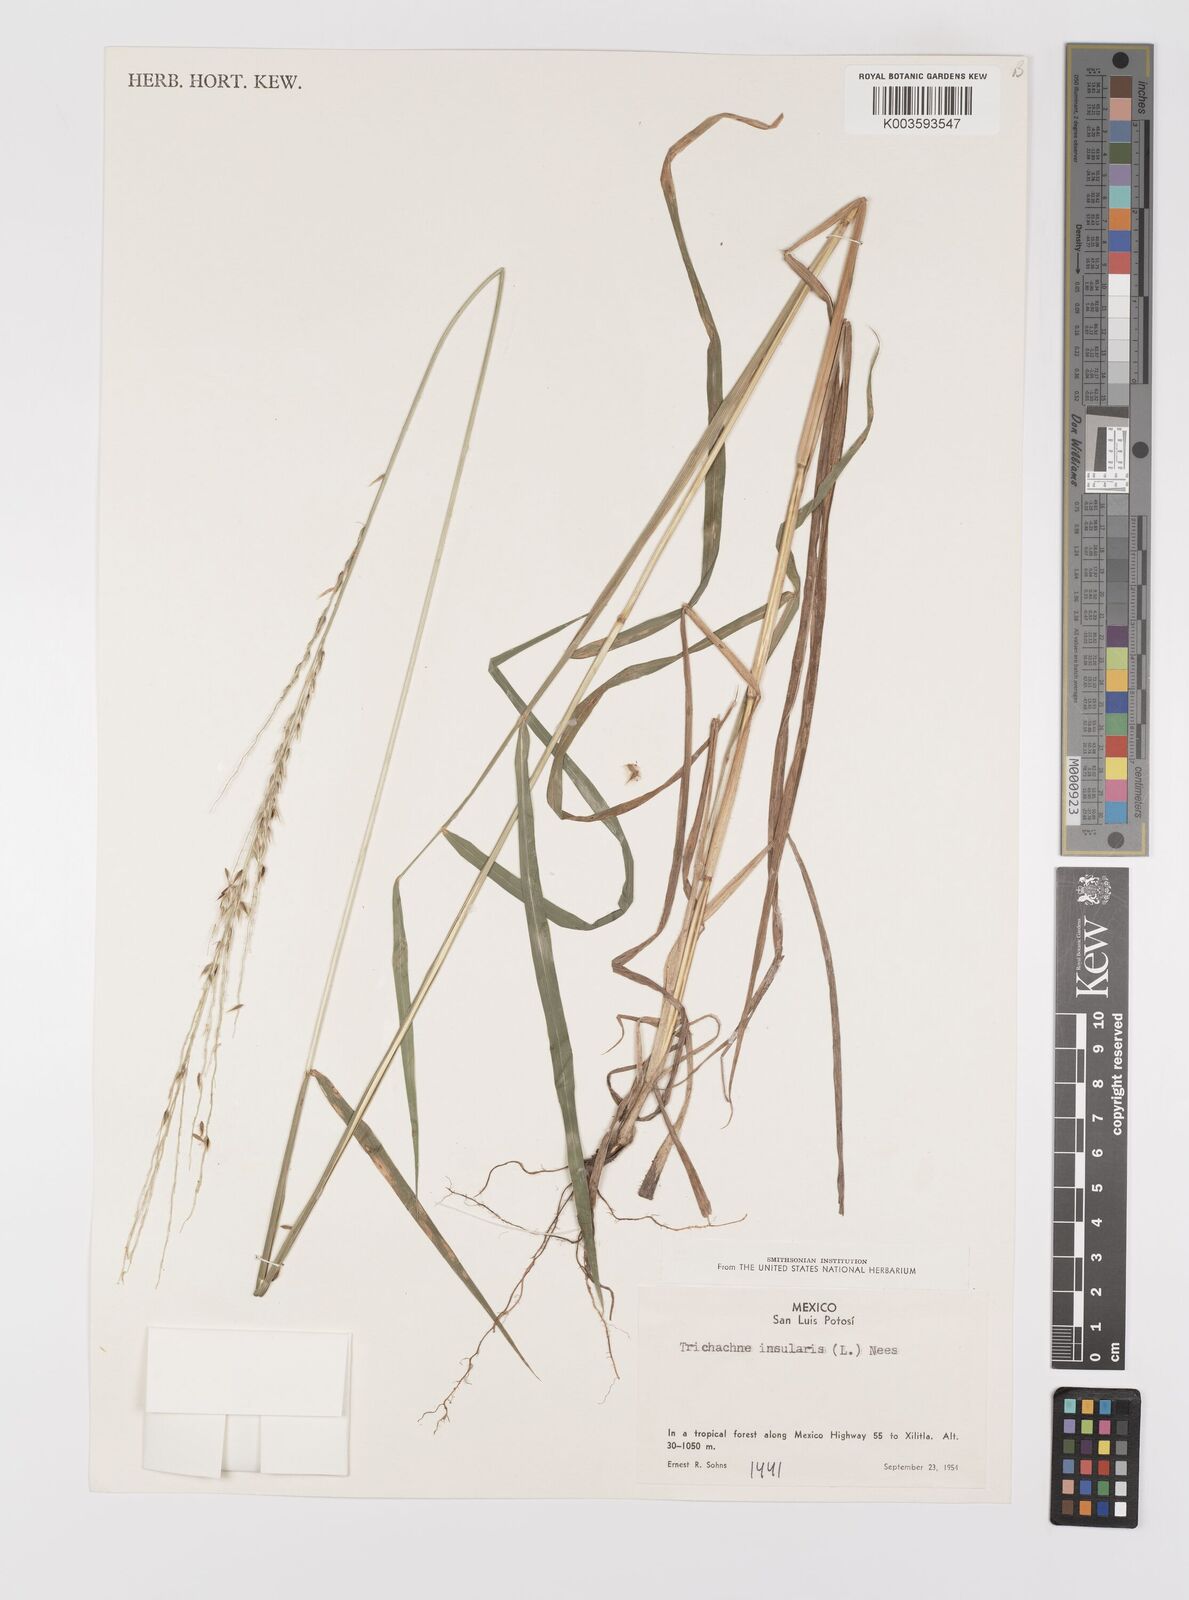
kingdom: Plantae
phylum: Tracheophyta
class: Liliopsida
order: Poales
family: Poaceae
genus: Digitaria
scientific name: Digitaria sellowii
